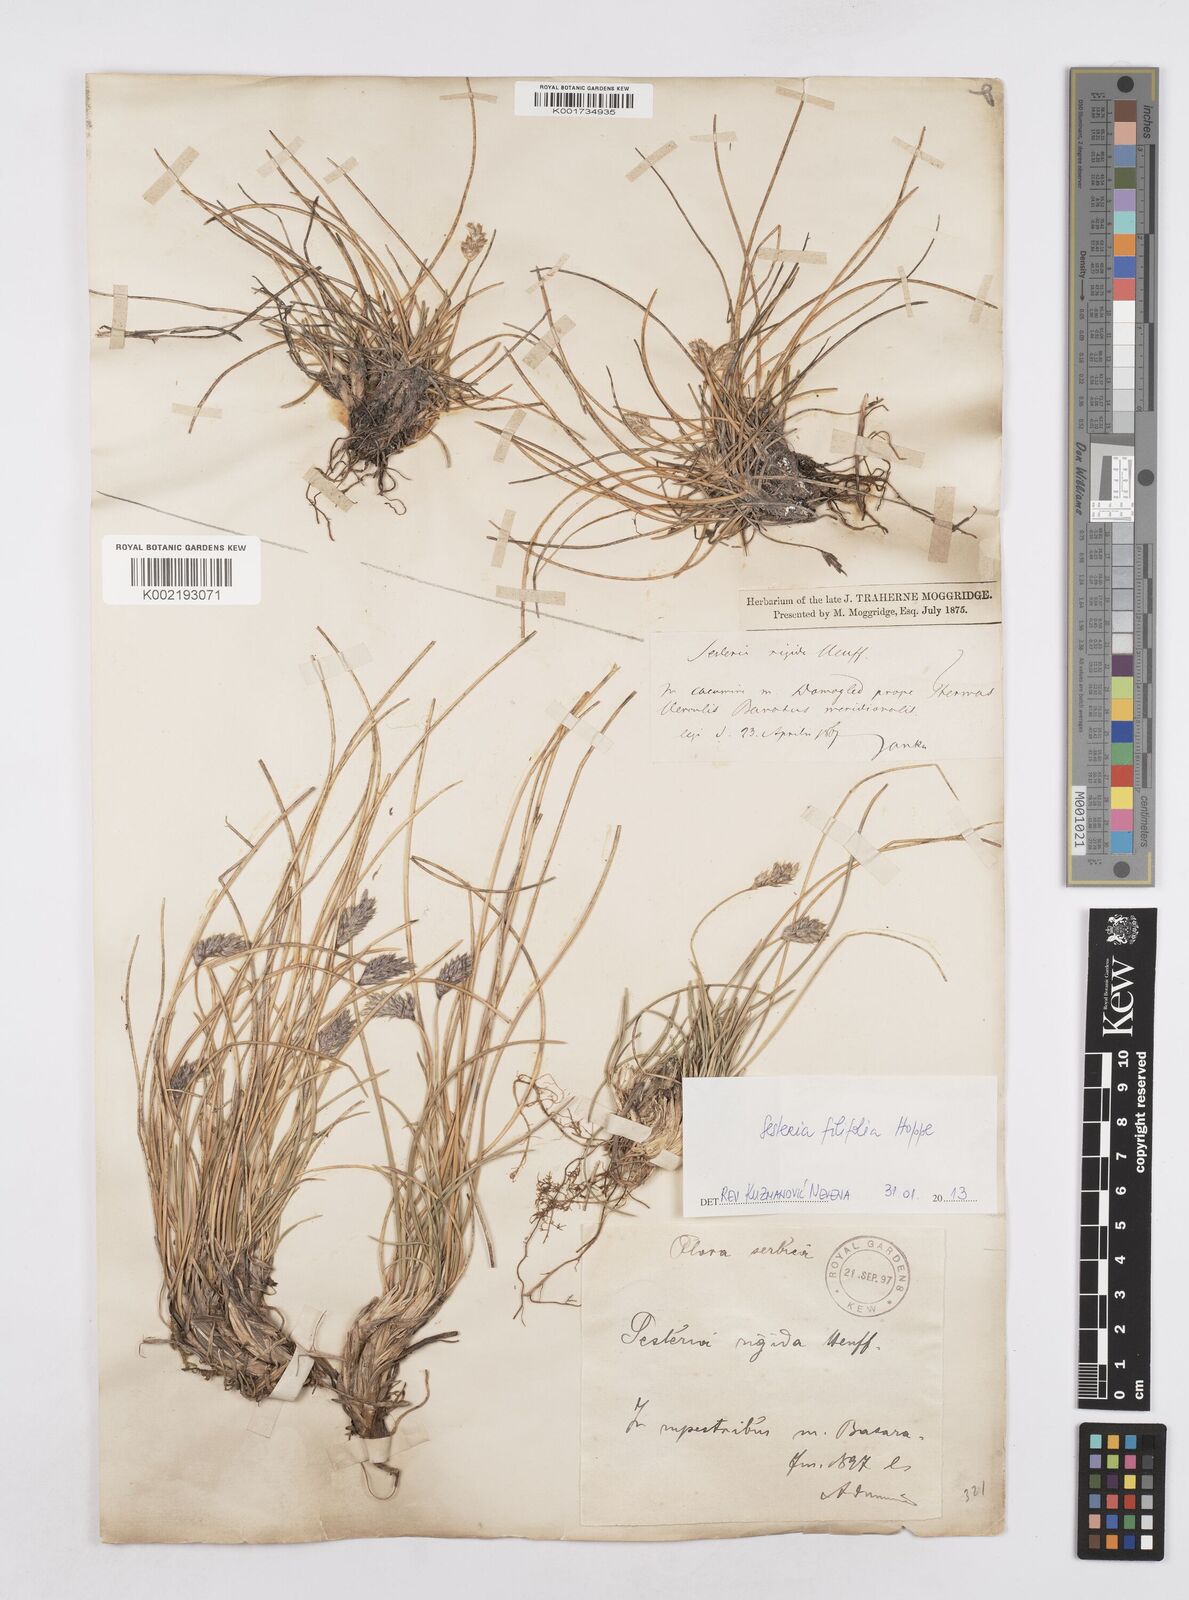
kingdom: Plantae
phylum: Tracheophyta
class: Liliopsida
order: Poales
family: Poaceae
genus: Sesleria
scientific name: Sesleria rigida
